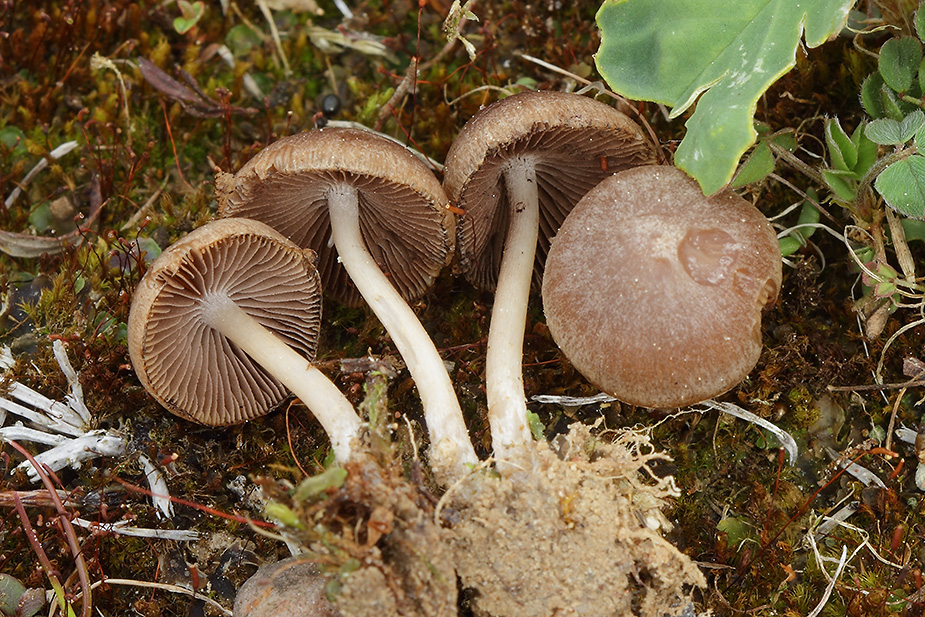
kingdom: Fungi
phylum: Basidiomycota
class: Agaricomycetes
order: Agaricales
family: Psathyrellaceae
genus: Psathyrella
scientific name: Psathyrella
